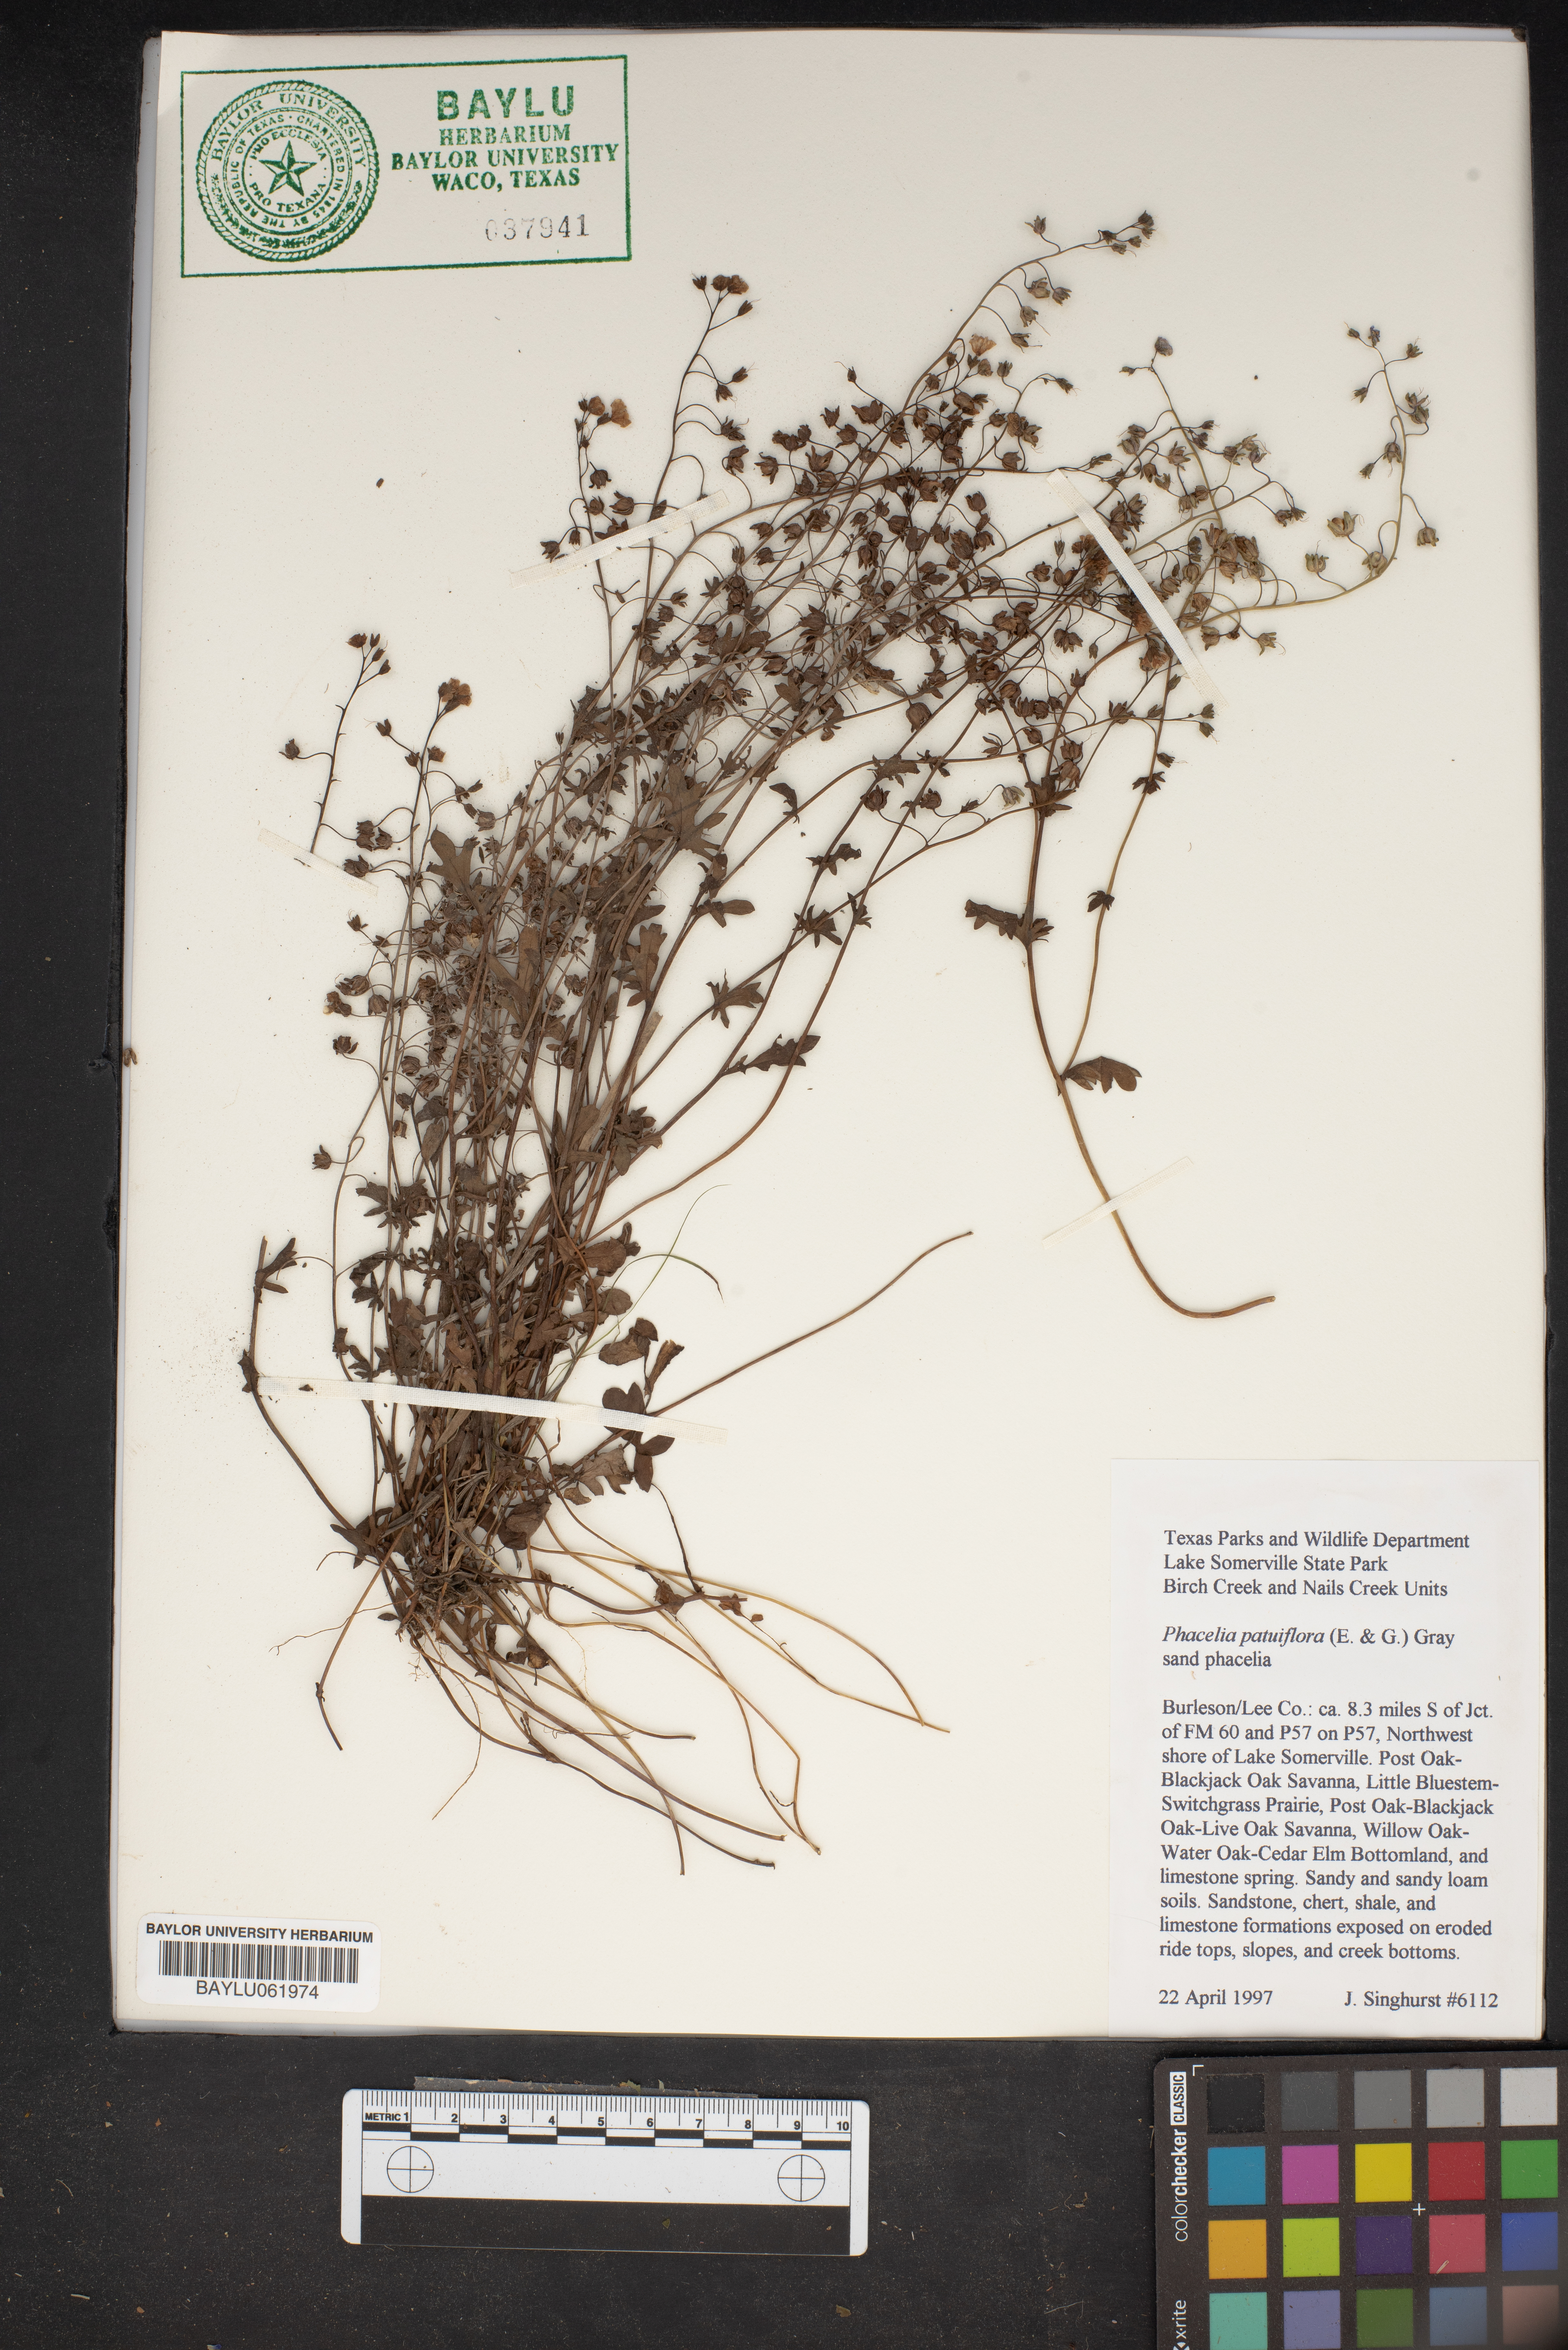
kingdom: Plantae
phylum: Tracheophyta
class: Magnoliopsida
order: Boraginales
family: Hydrophyllaceae
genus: Phacelia
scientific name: Phacelia patuliflora
